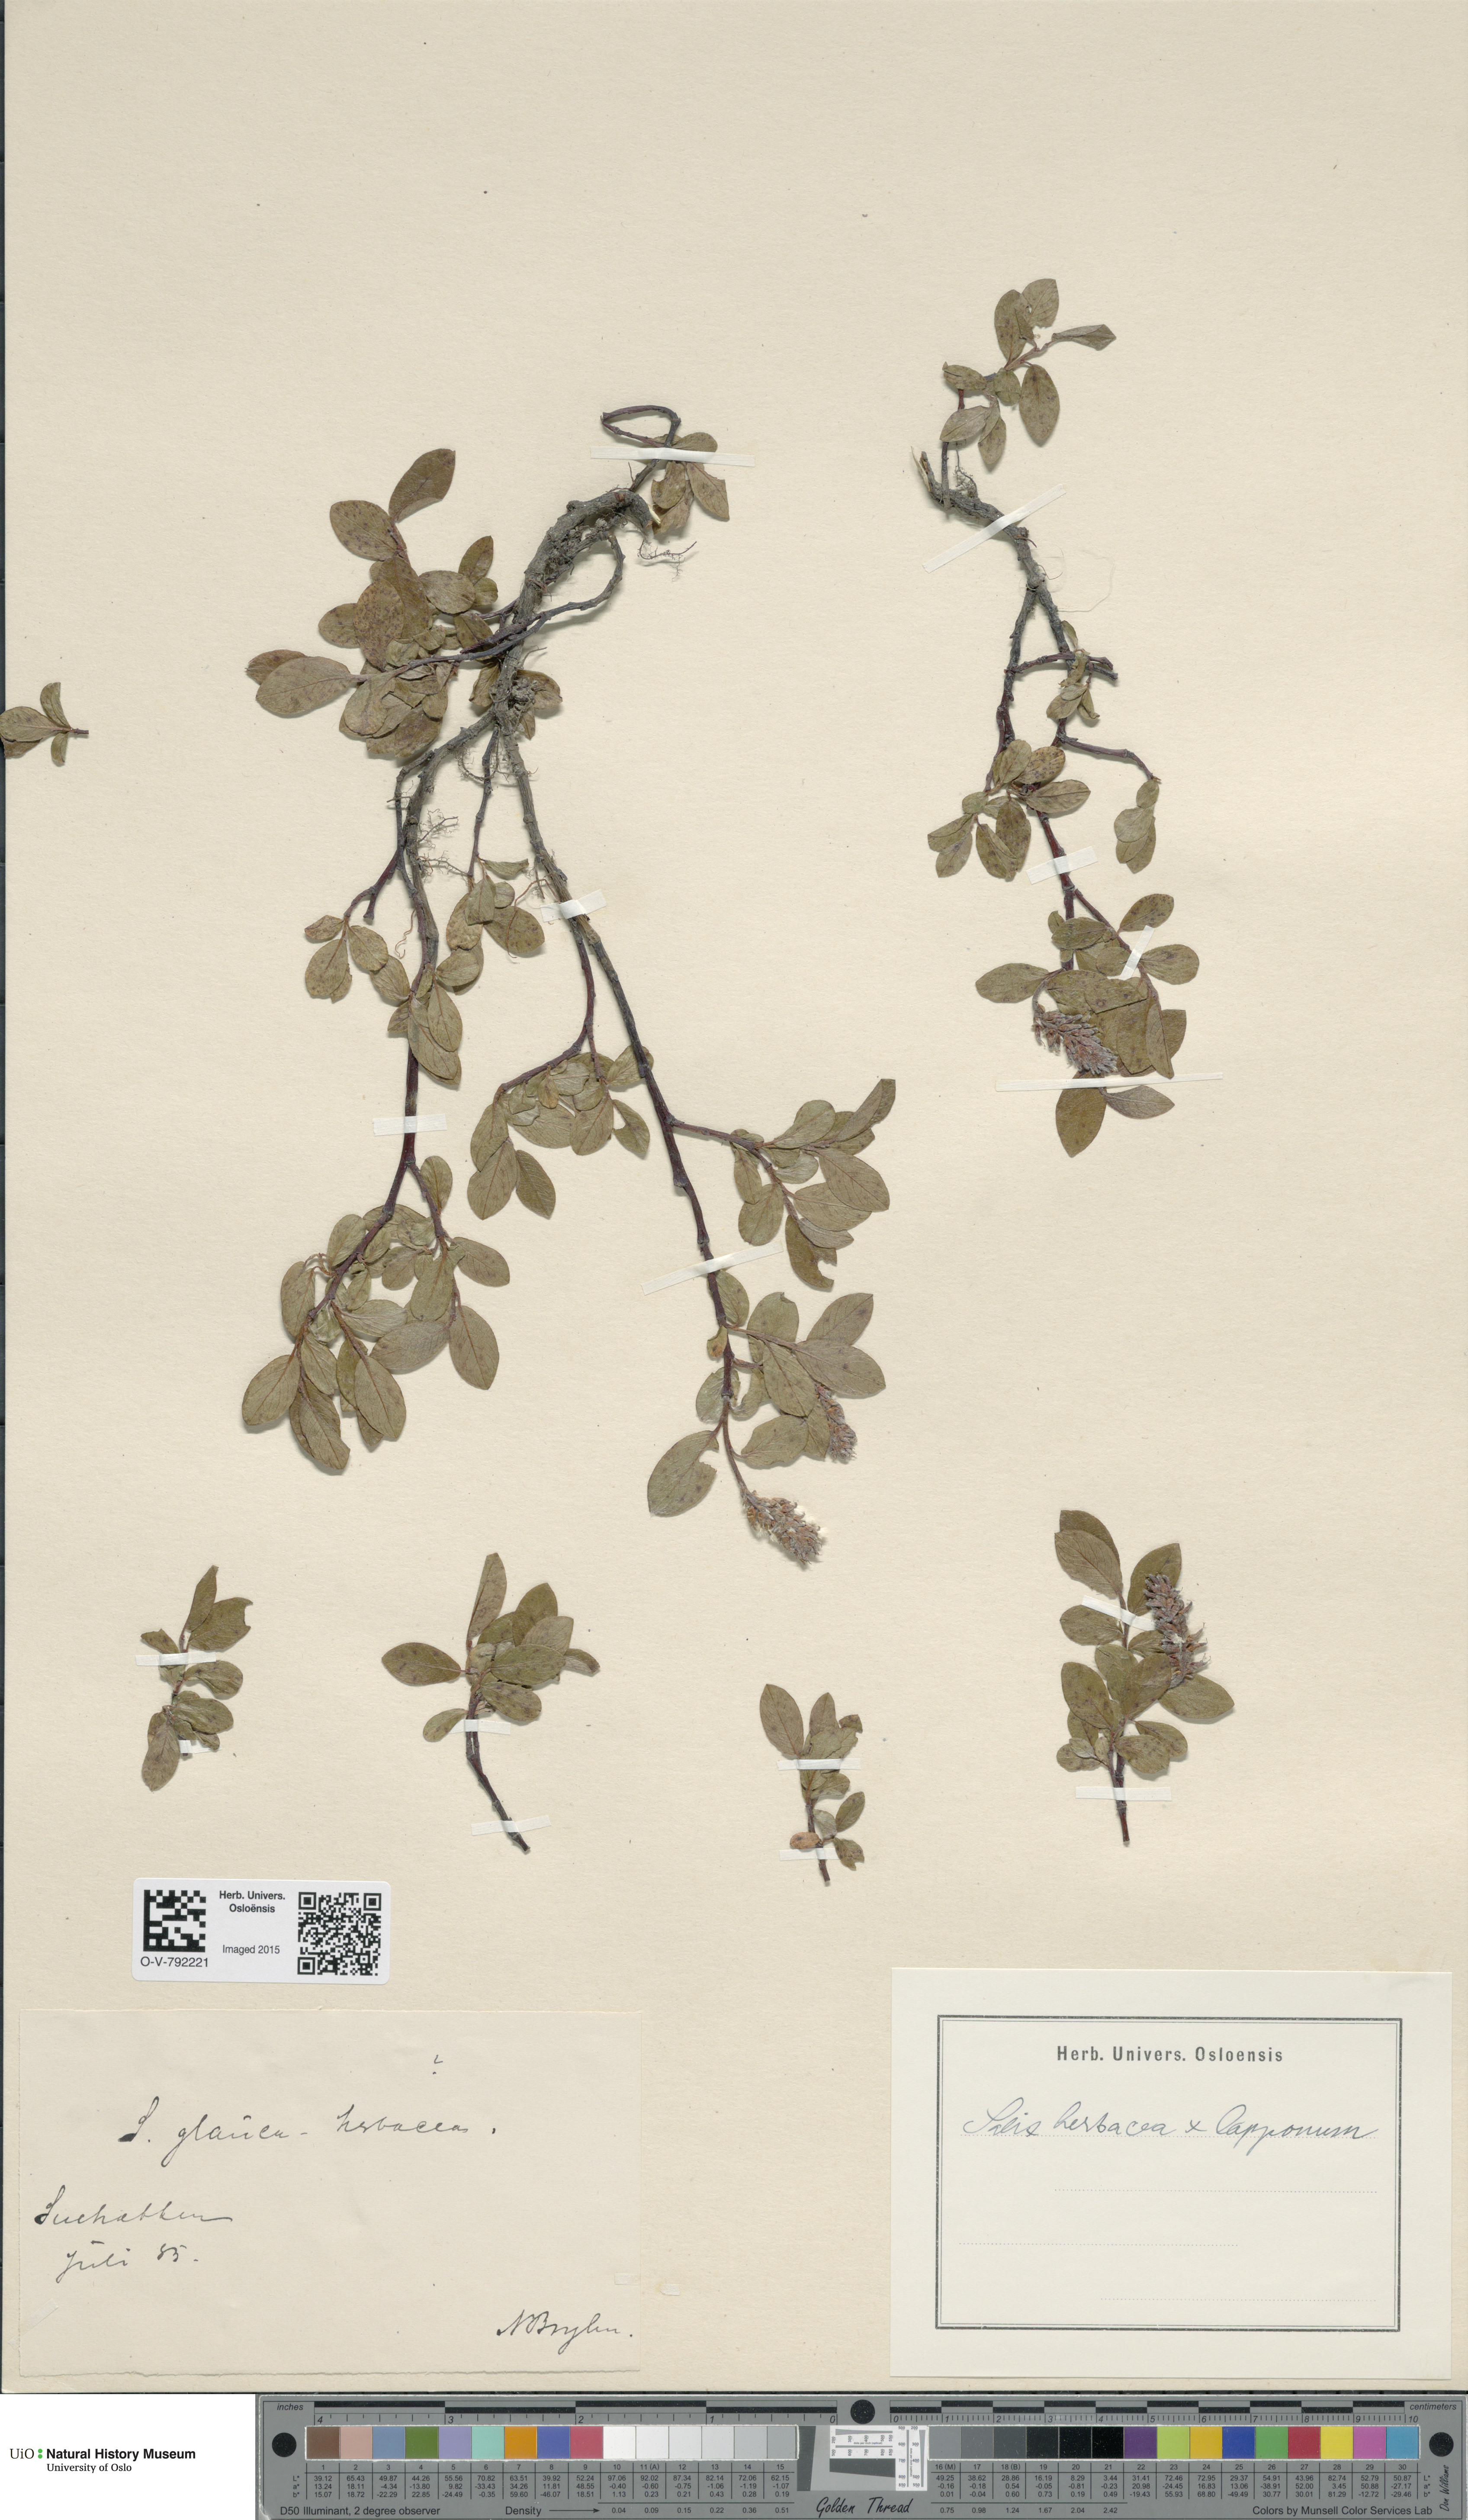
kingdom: Plantae
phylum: Tracheophyta
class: Magnoliopsida
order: Malpighiales
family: Salicaceae
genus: Salix
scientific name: Salix
